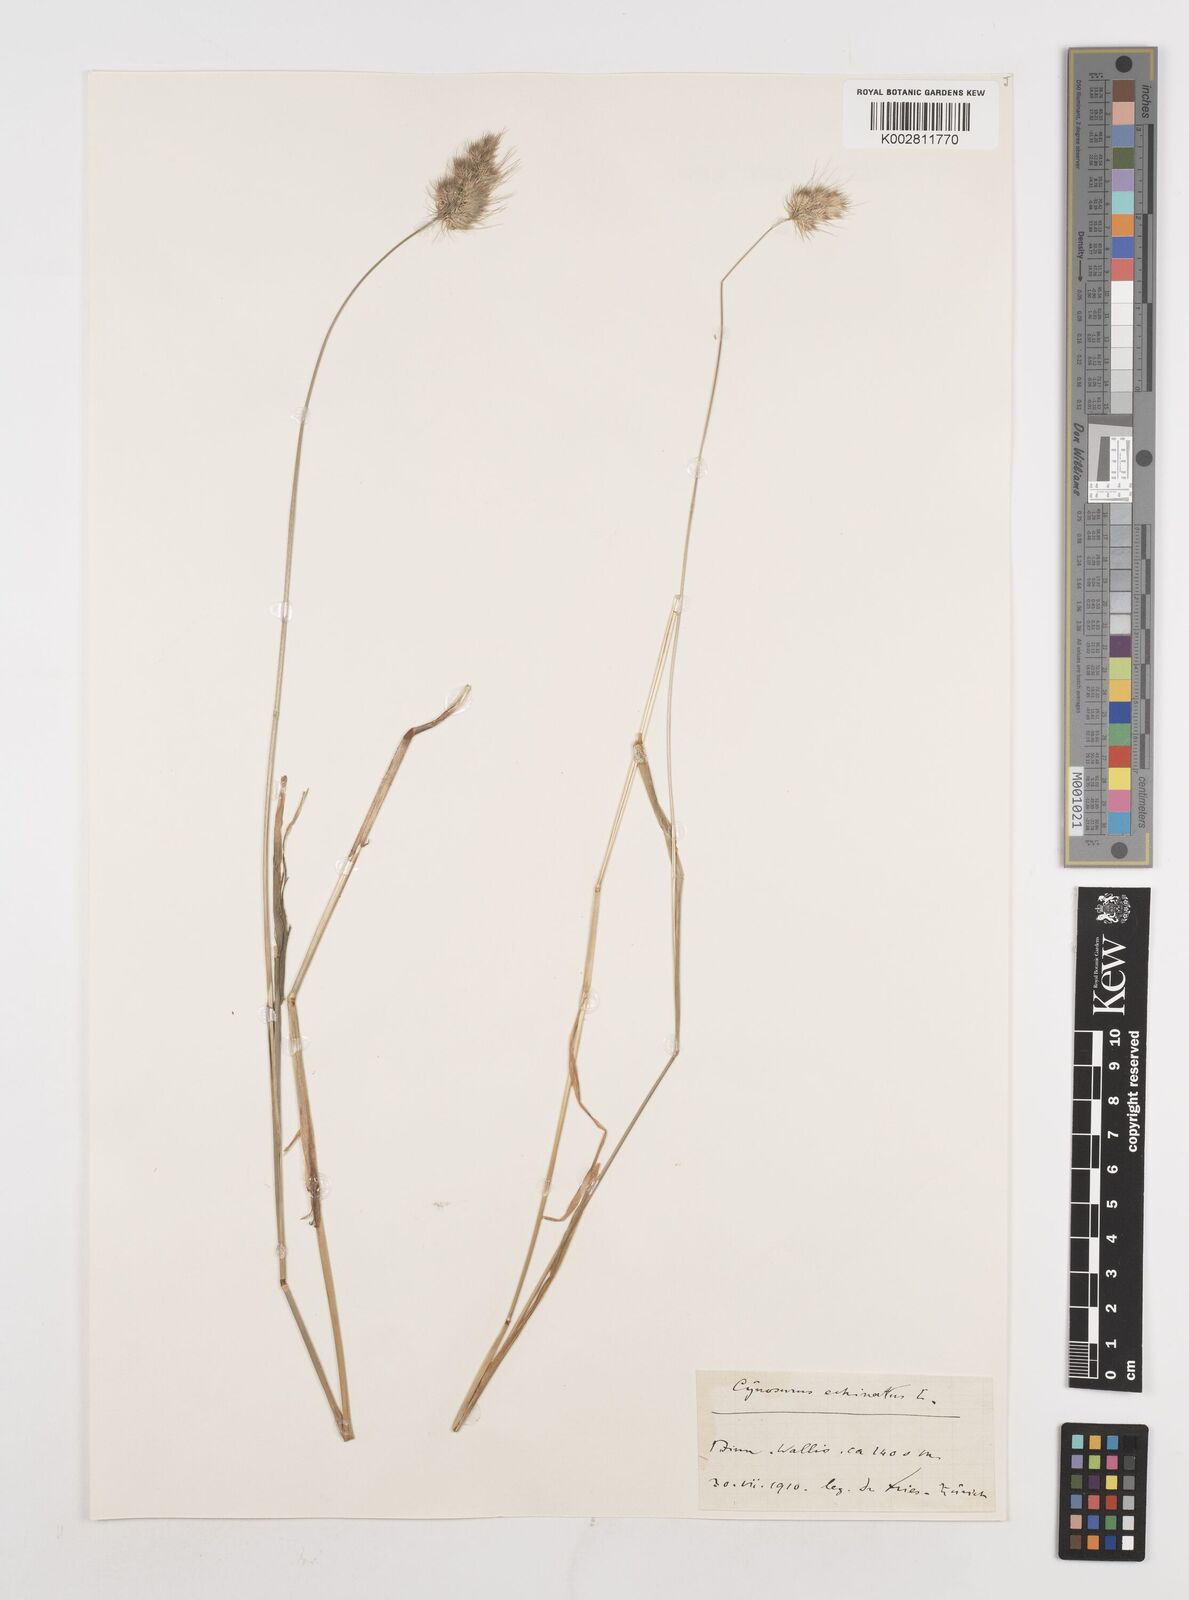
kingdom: Plantae
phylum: Tracheophyta
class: Liliopsida
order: Poales
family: Poaceae
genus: Cynosurus
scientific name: Cynosurus echinatus
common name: Rough dog's-tail
